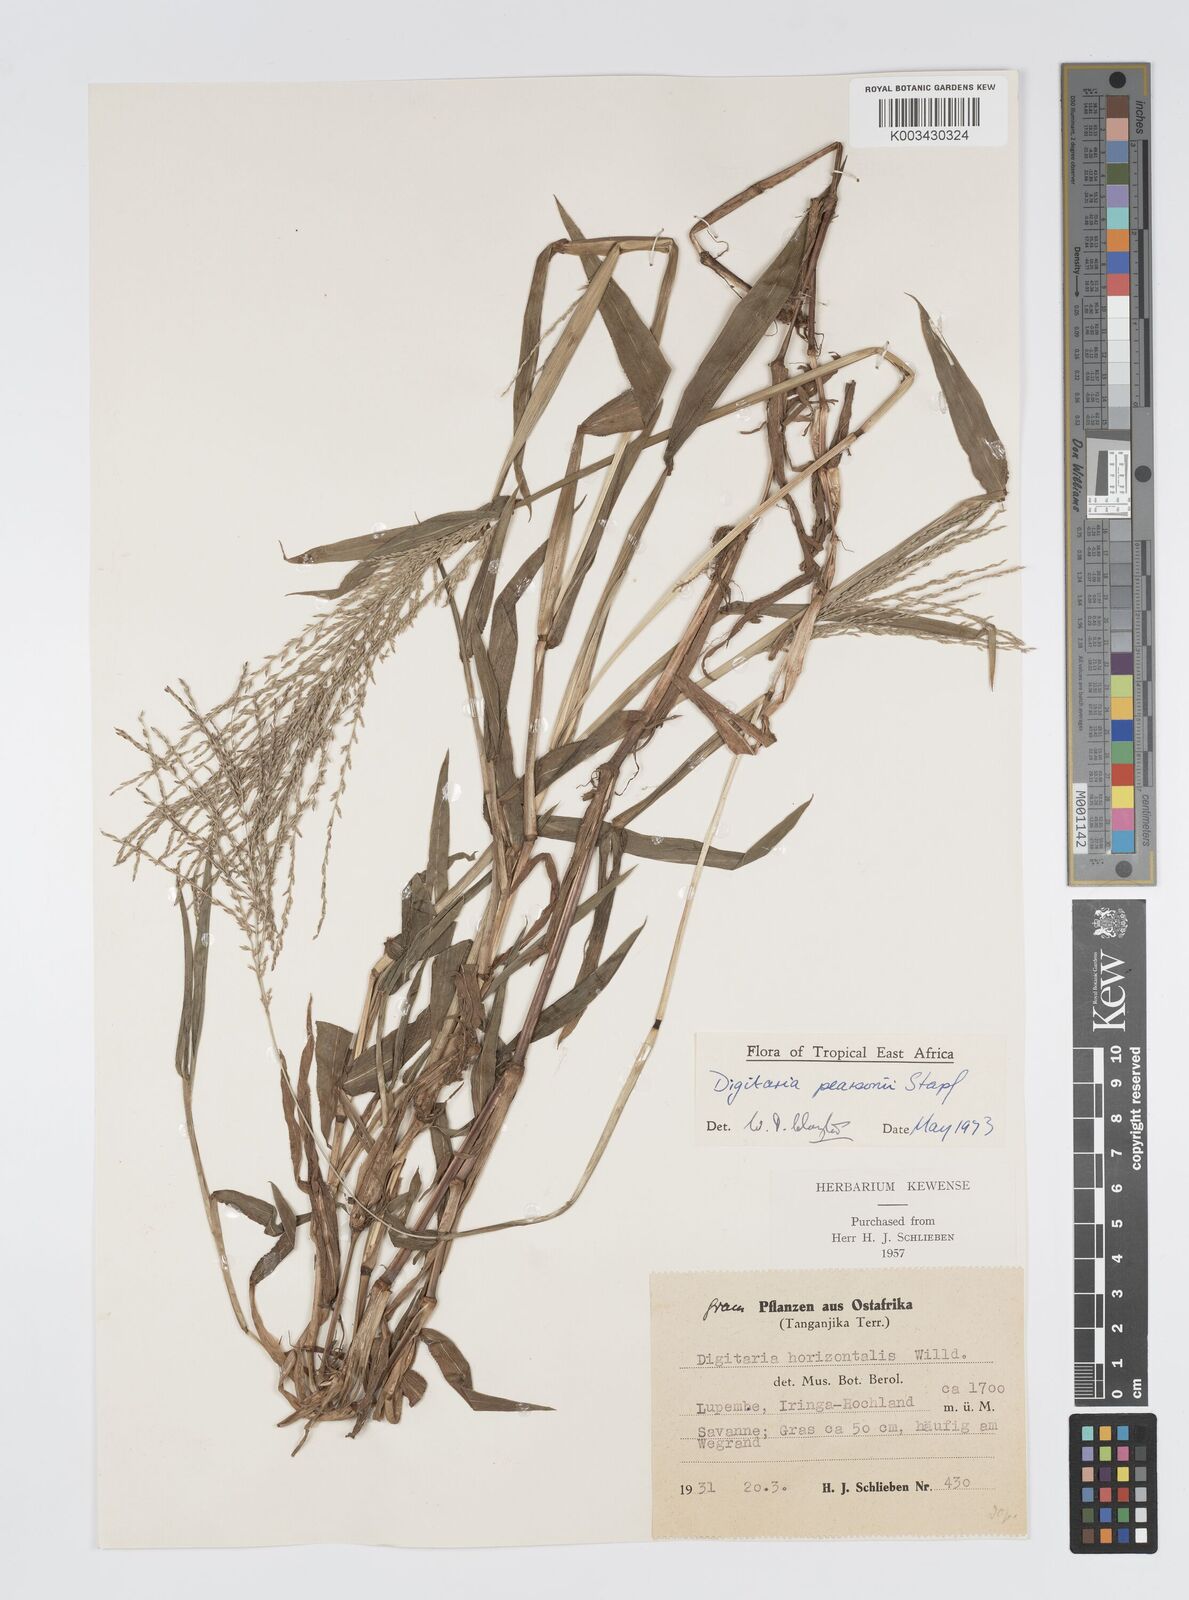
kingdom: Plantae
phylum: Tracheophyta
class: Liliopsida
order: Poales
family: Poaceae
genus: Digitaria
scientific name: Digitaria pearsonii
